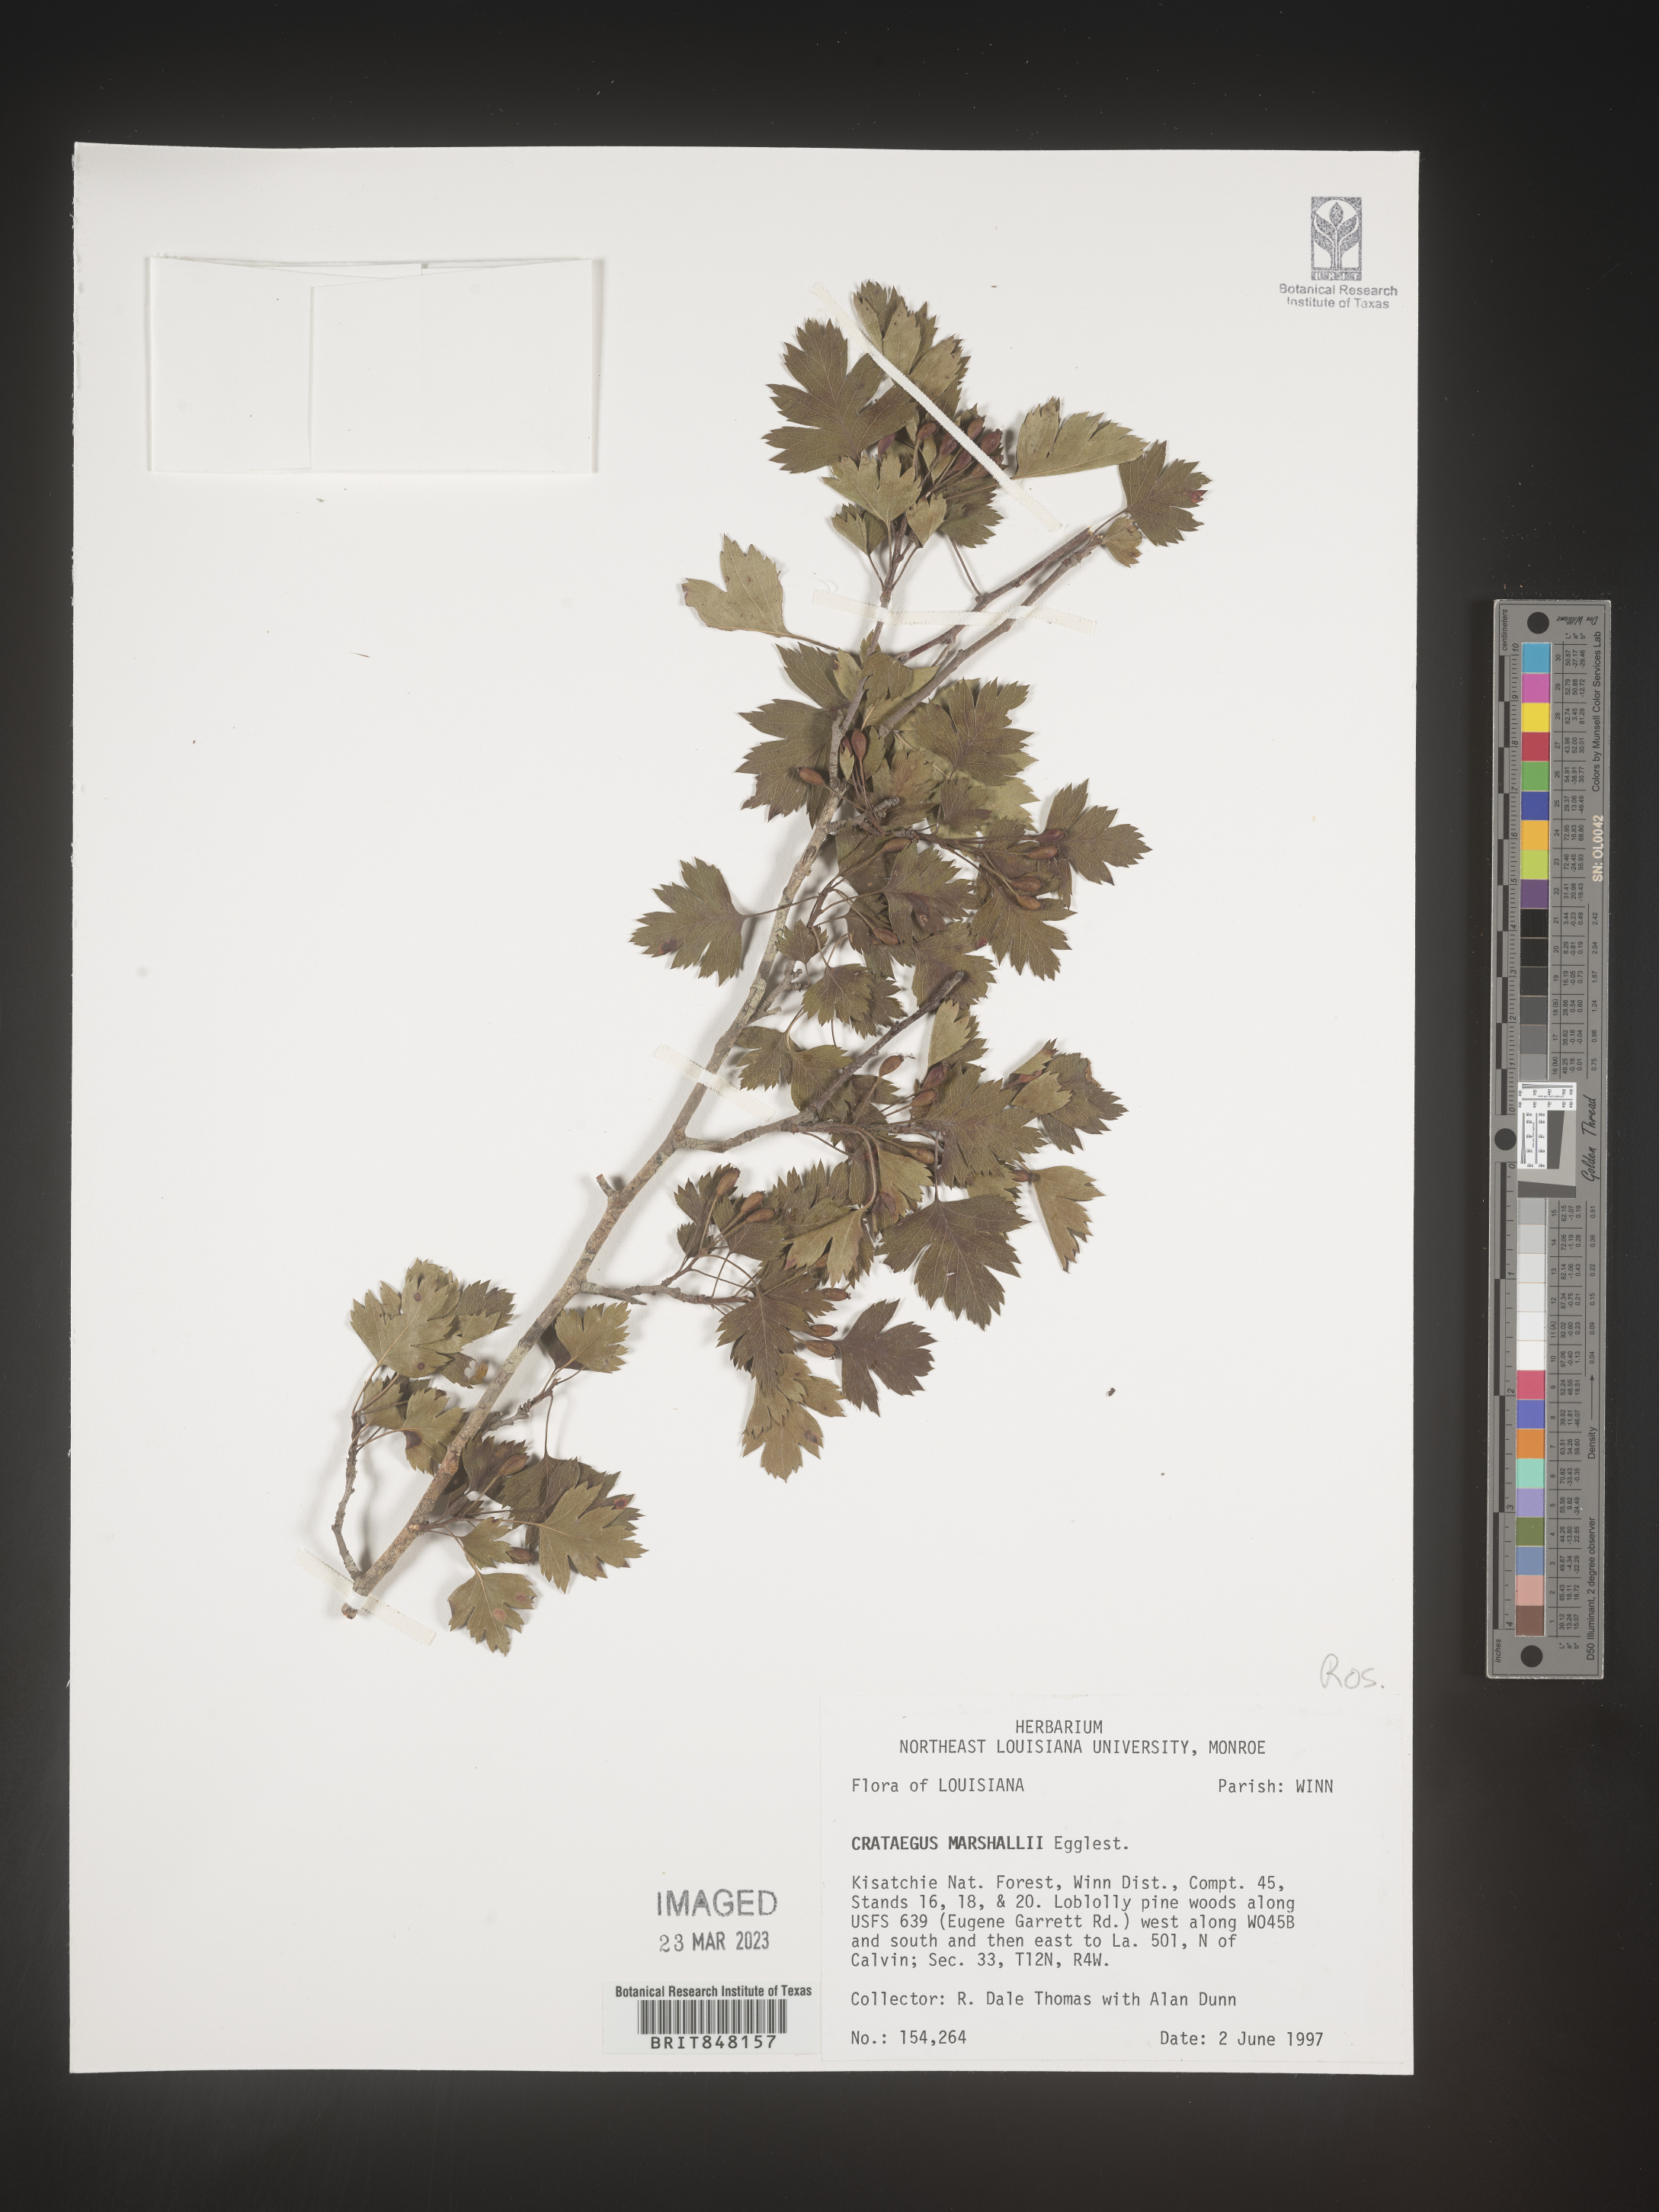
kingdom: Plantae
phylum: Tracheophyta
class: Magnoliopsida
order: Rosales
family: Rosaceae
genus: Crataegus
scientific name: Crataegus marshallii
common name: Parsley-hawthorn
